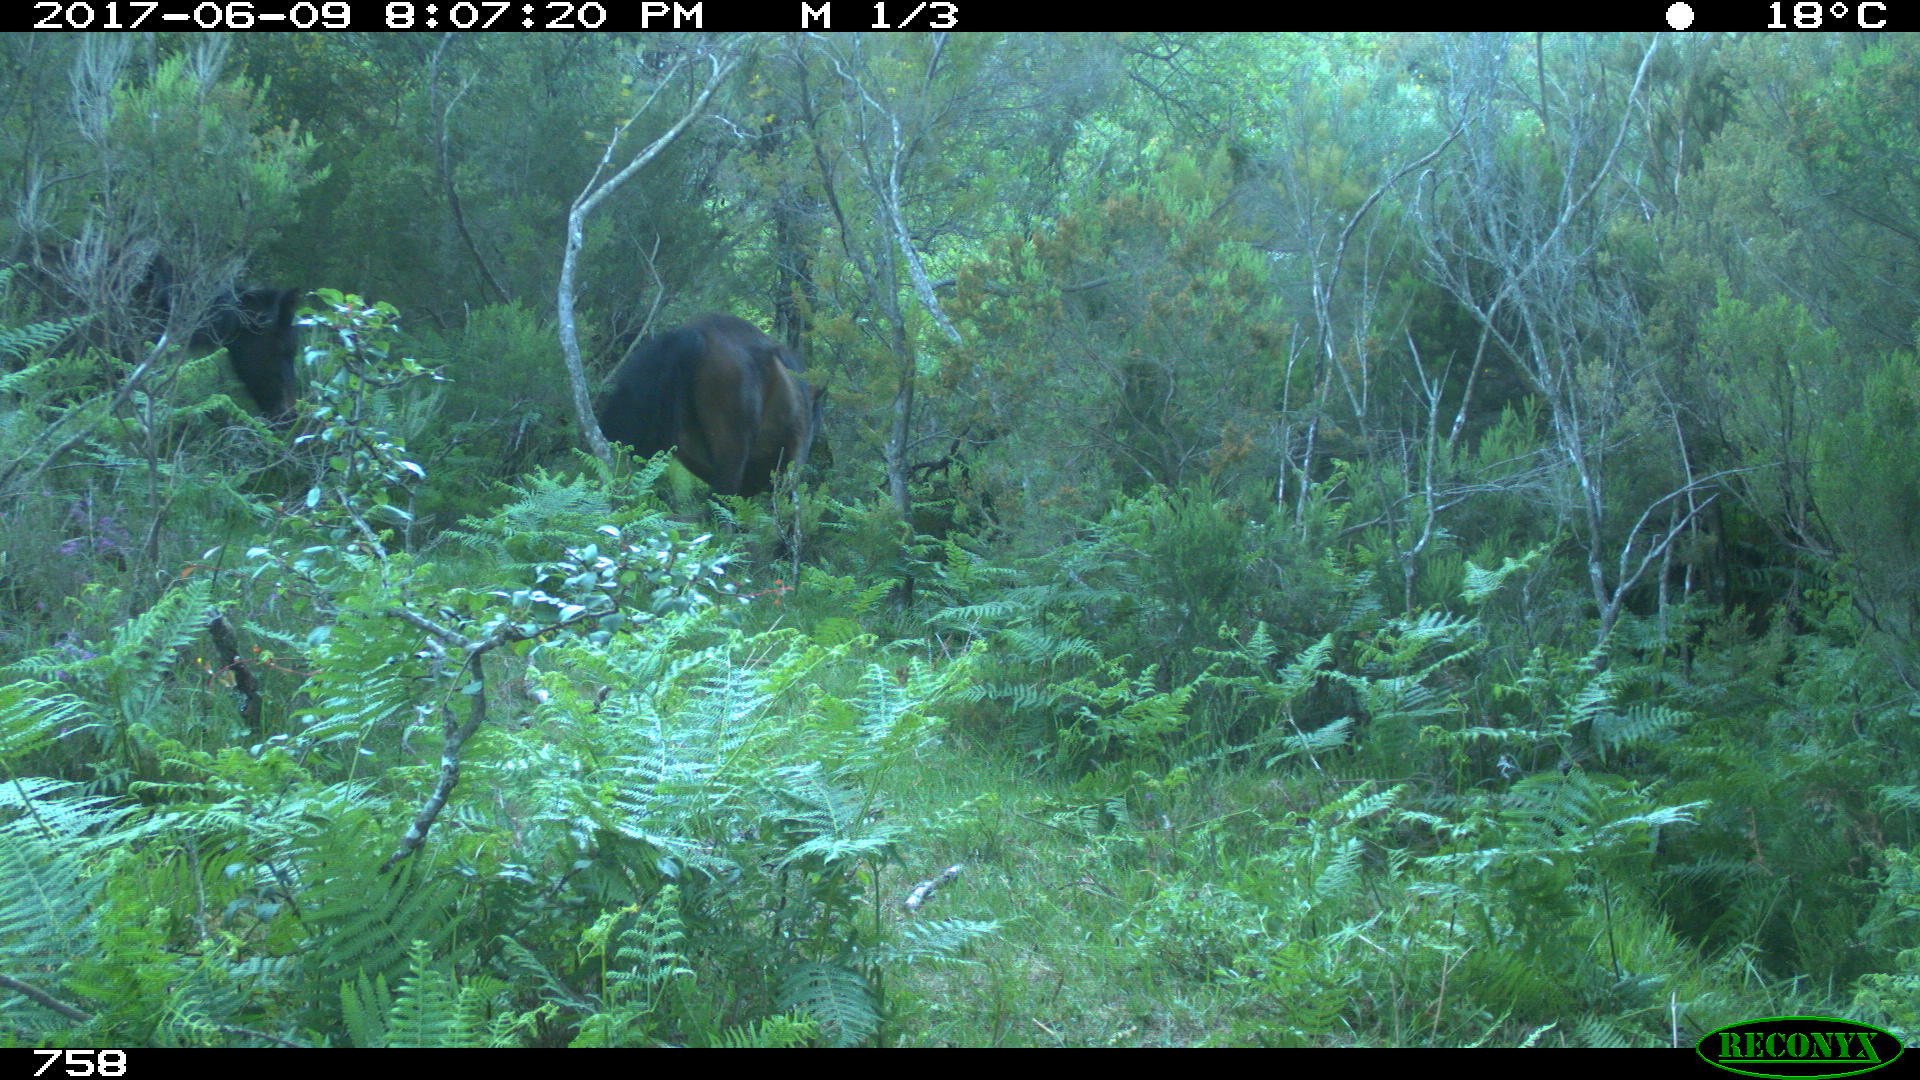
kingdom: Animalia
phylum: Chordata
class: Mammalia
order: Perissodactyla
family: Equidae
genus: Equus
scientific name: Equus caballus
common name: Horse
